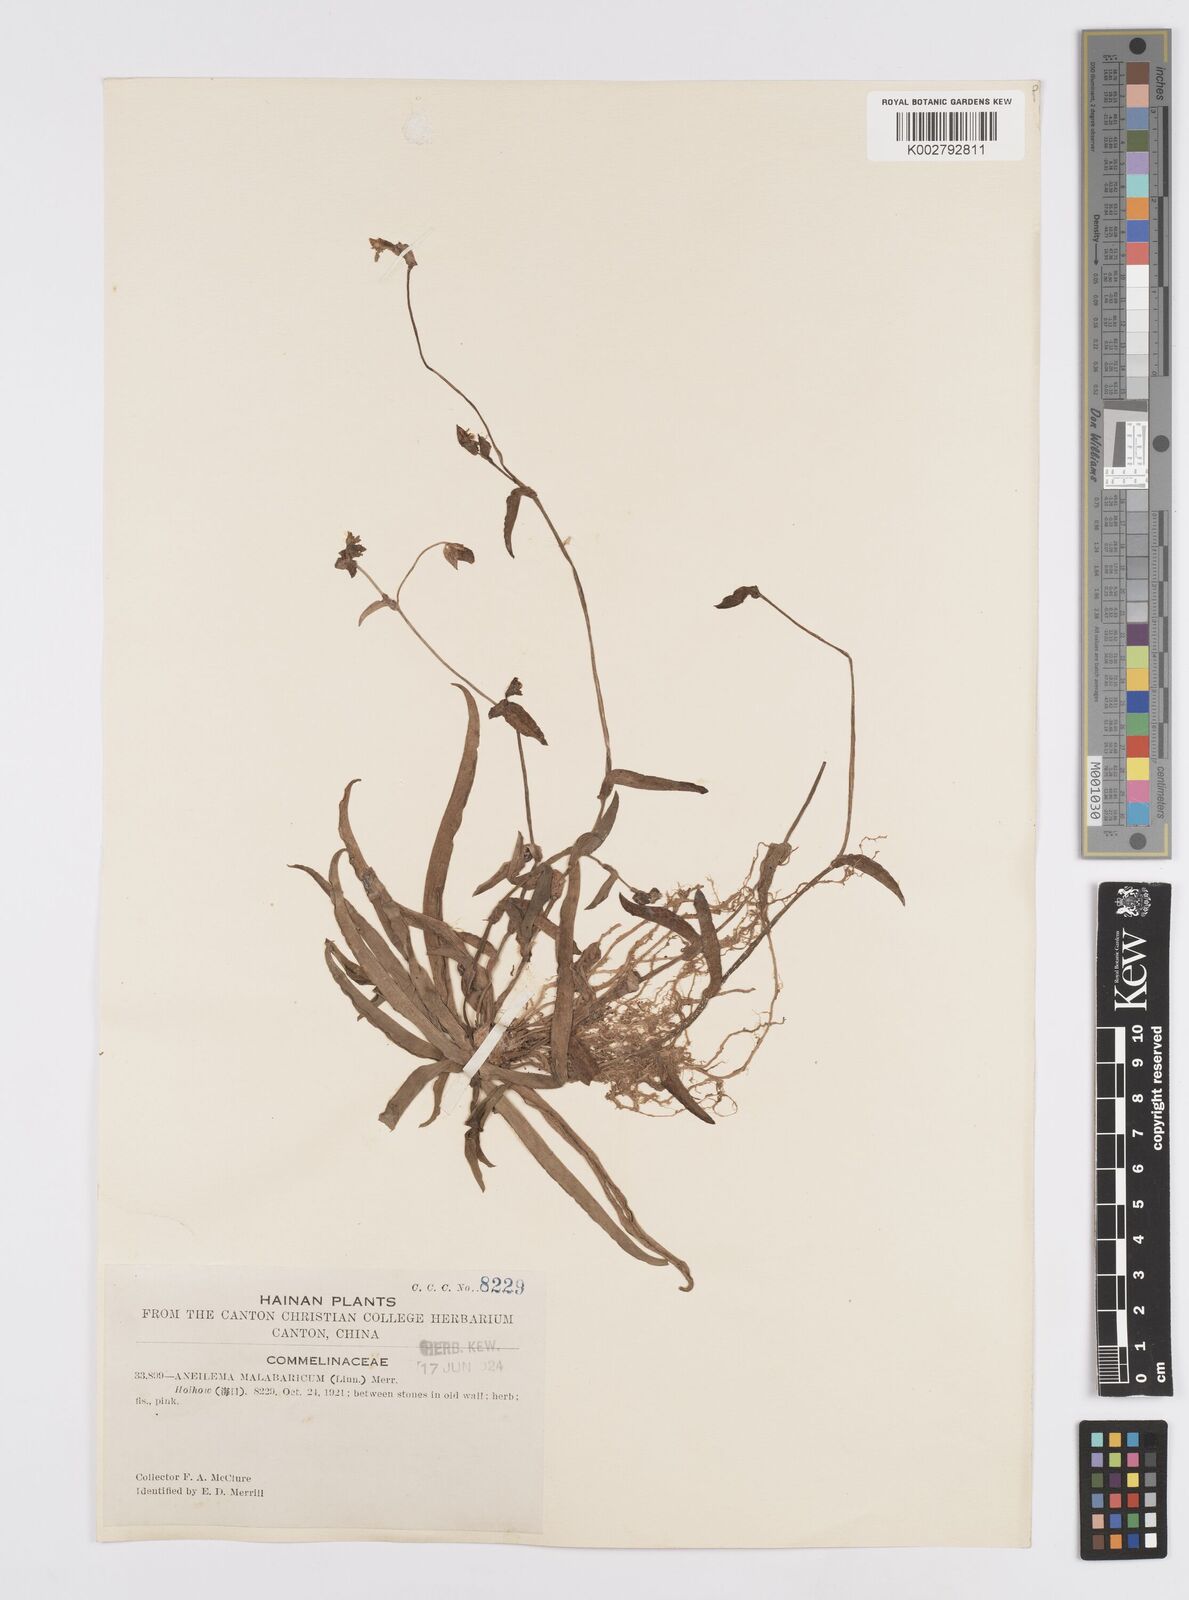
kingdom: Plantae
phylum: Tracheophyta
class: Liliopsida
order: Commelinales
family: Commelinaceae
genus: Murdannia
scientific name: Murdannia
